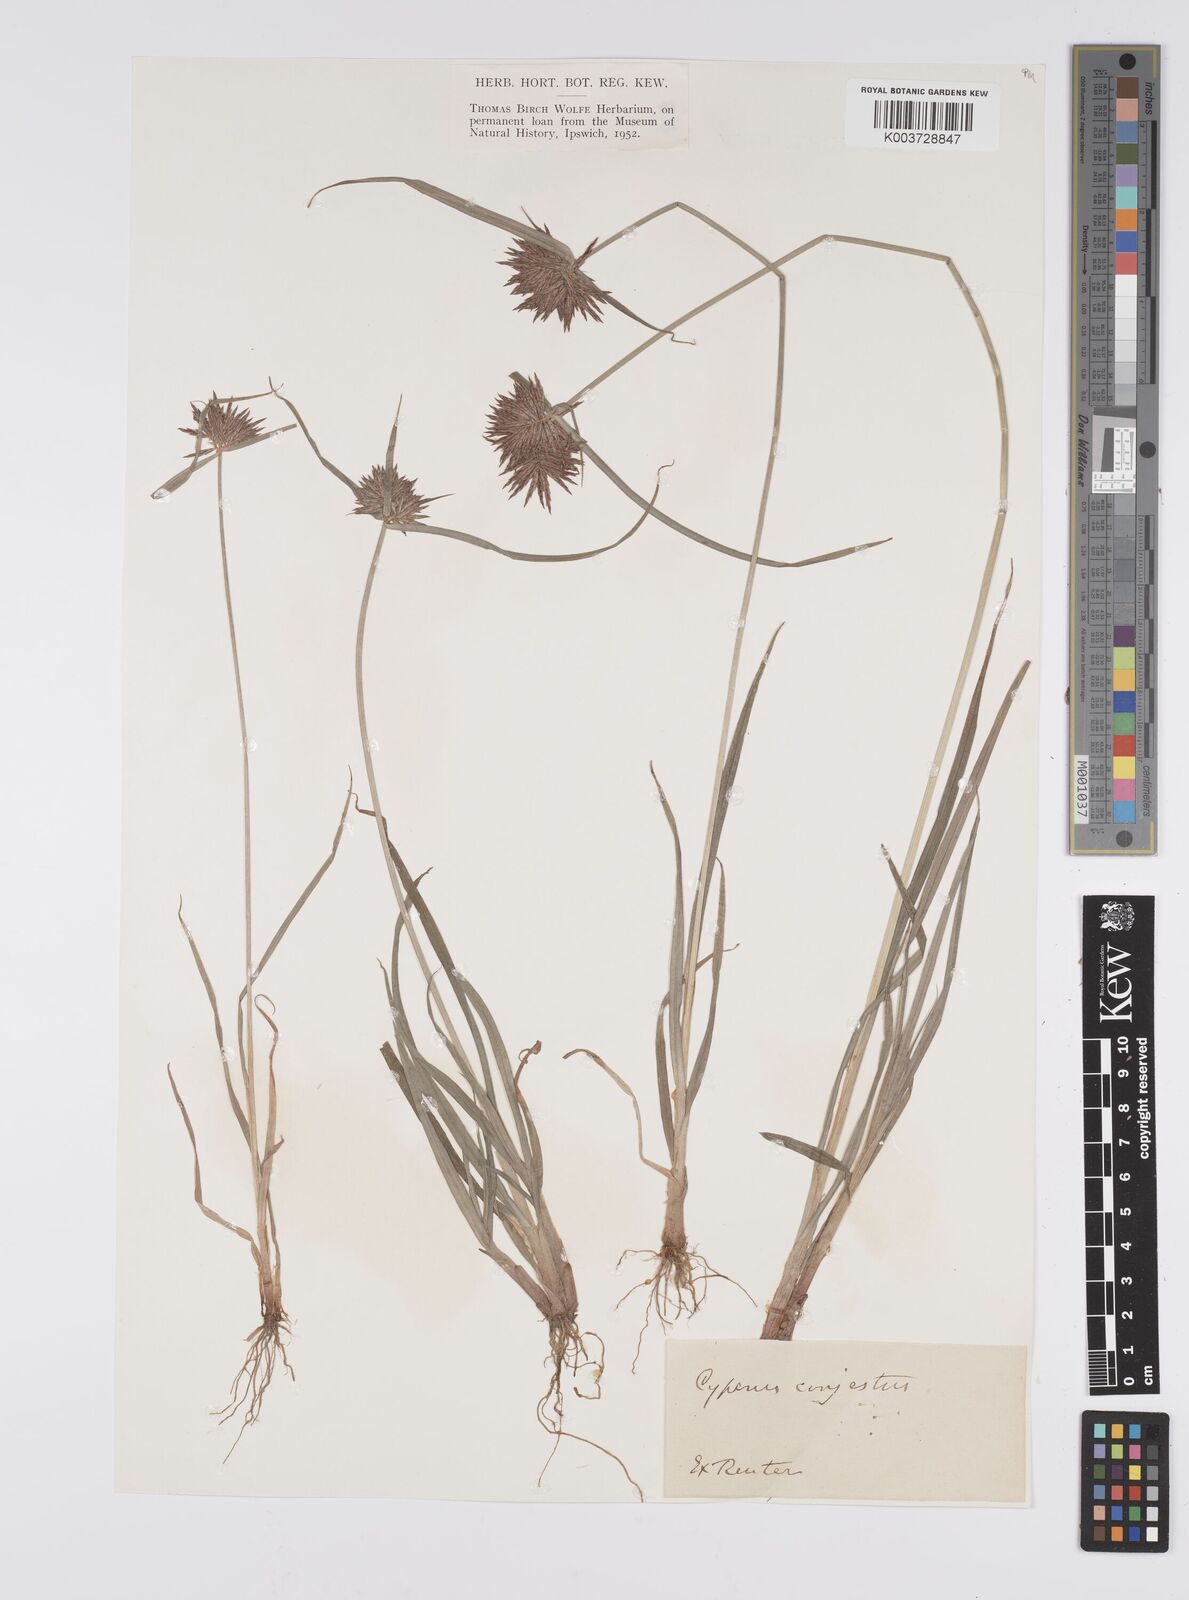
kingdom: Plantae
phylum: Tracheophyta
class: Liliopsida
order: Poales
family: Cyperaceae
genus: Cyperus
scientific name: Cyperus congestus
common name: Dense flat sedge
